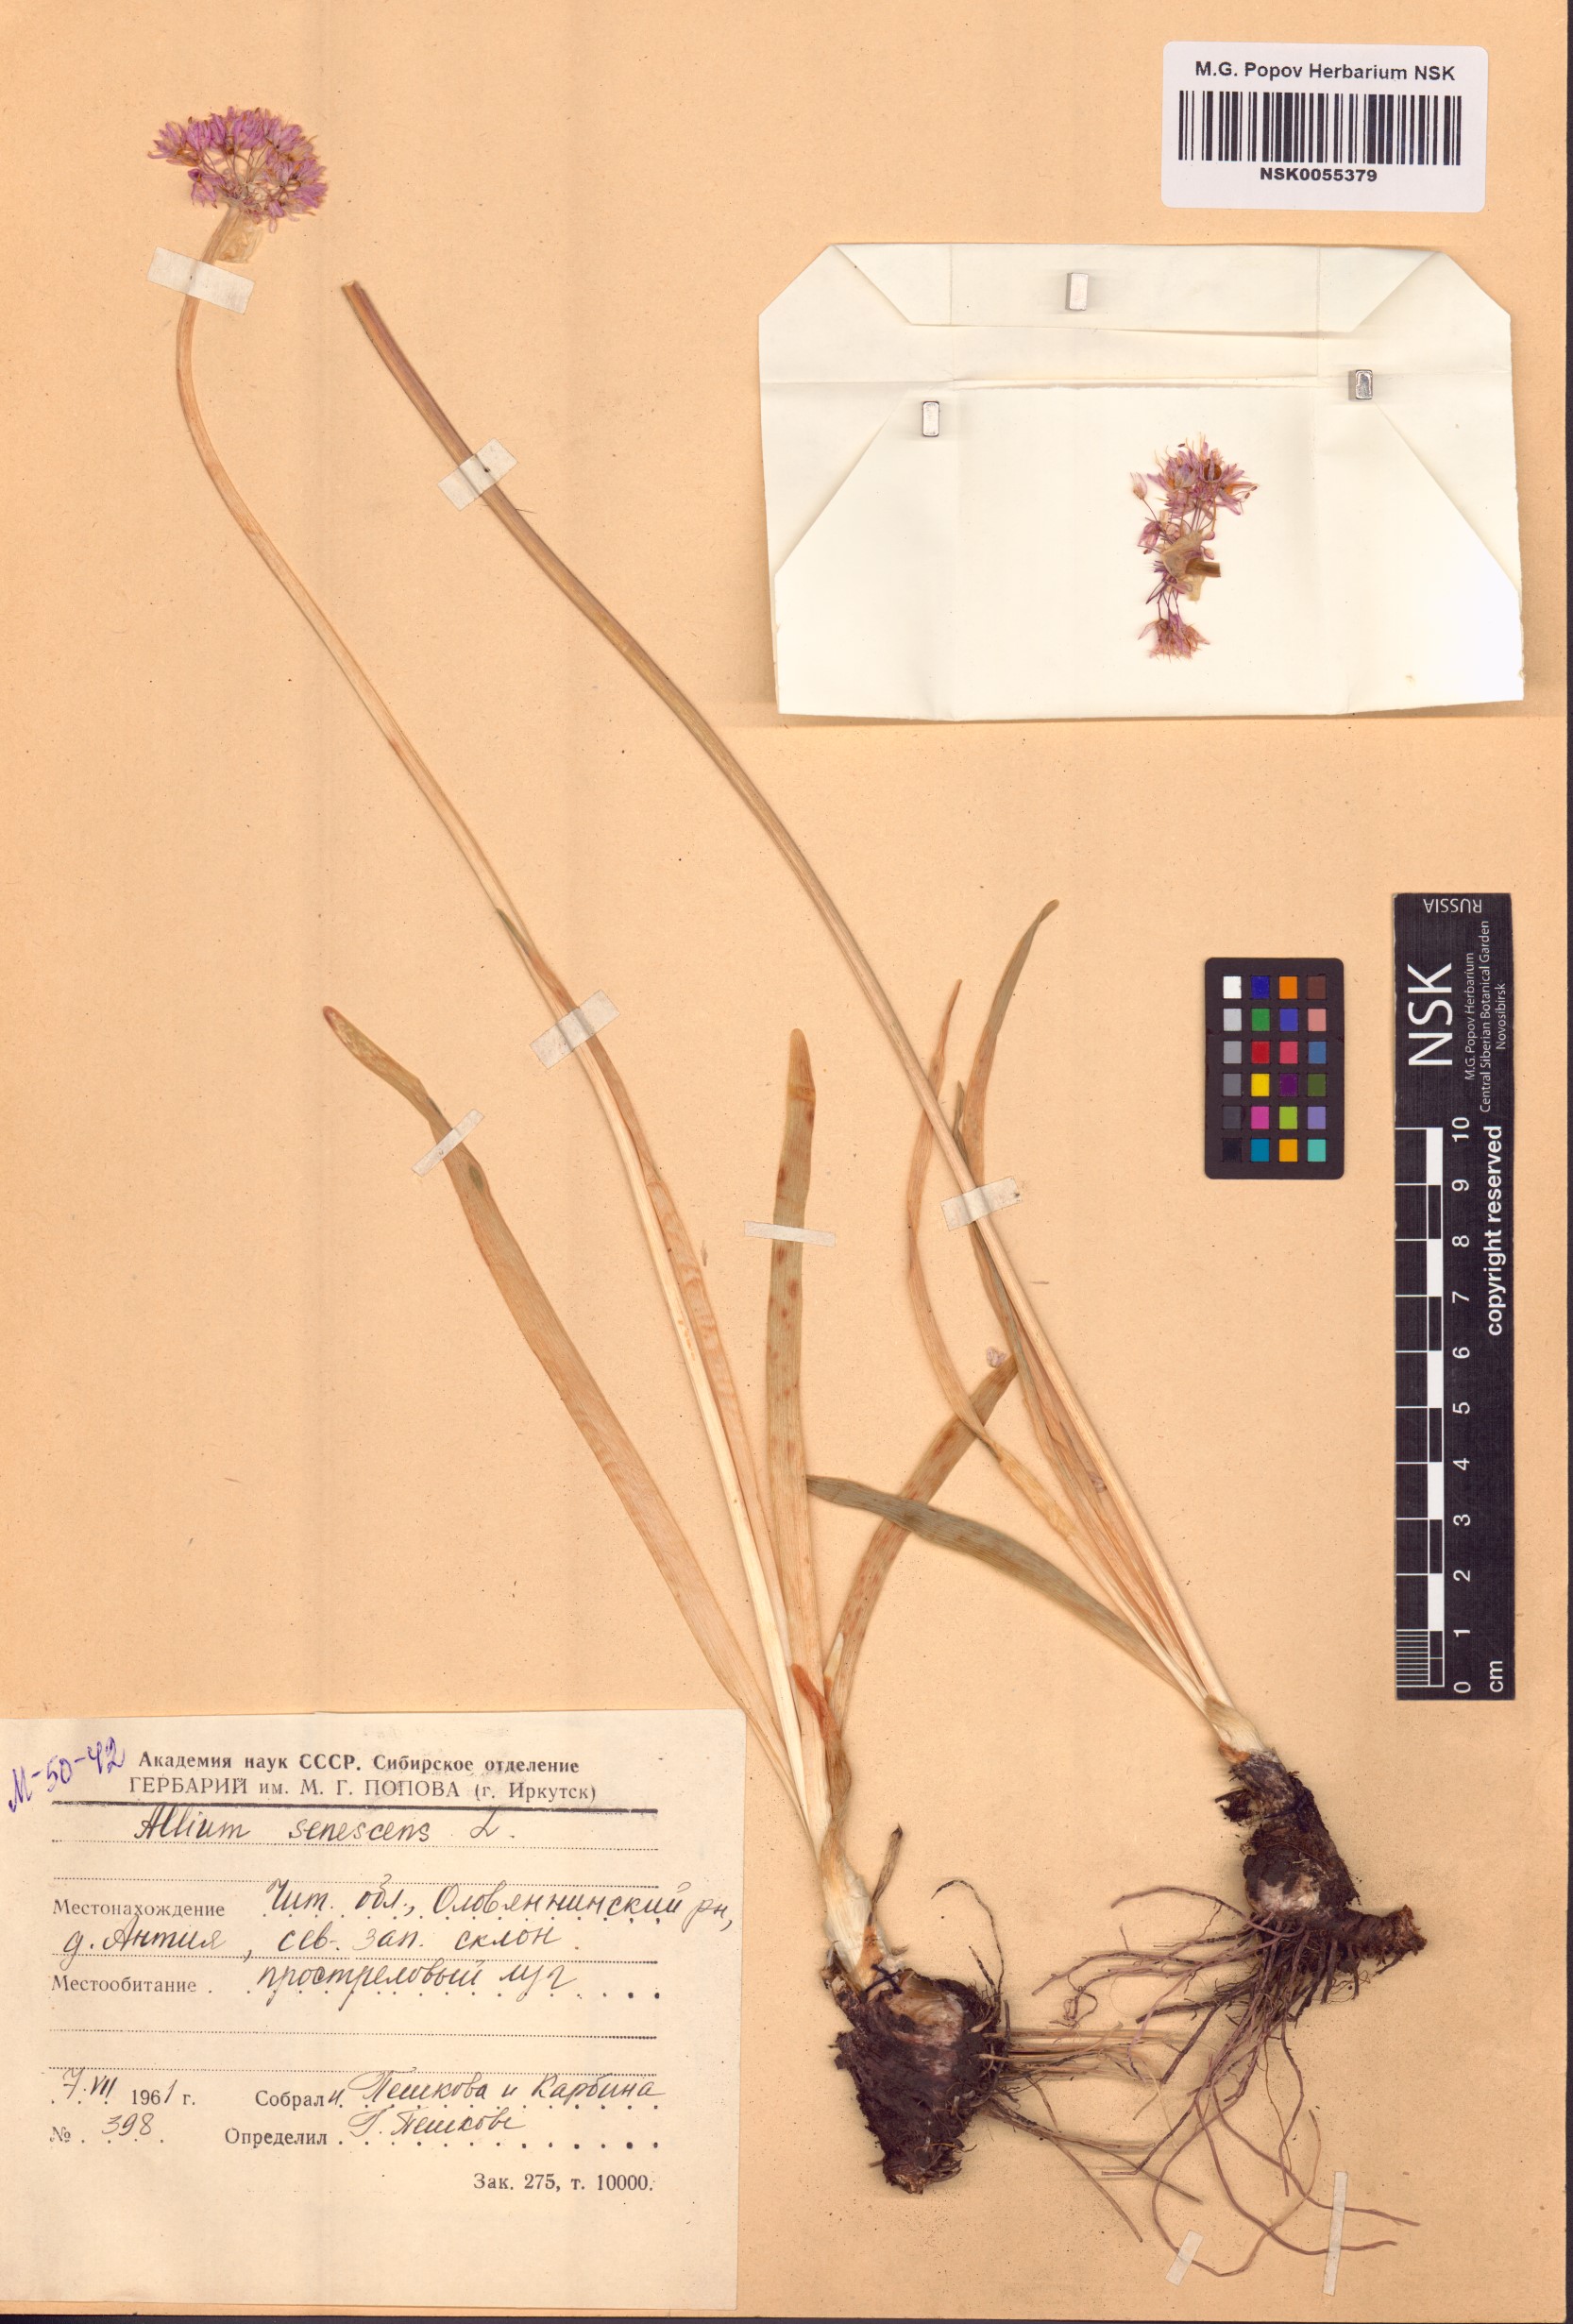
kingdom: Plantae
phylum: Tracheophyta
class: Liliopsida
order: Asparagales
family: Amaryllidaceae
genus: Allium
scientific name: Allium senescens
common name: German garlic
